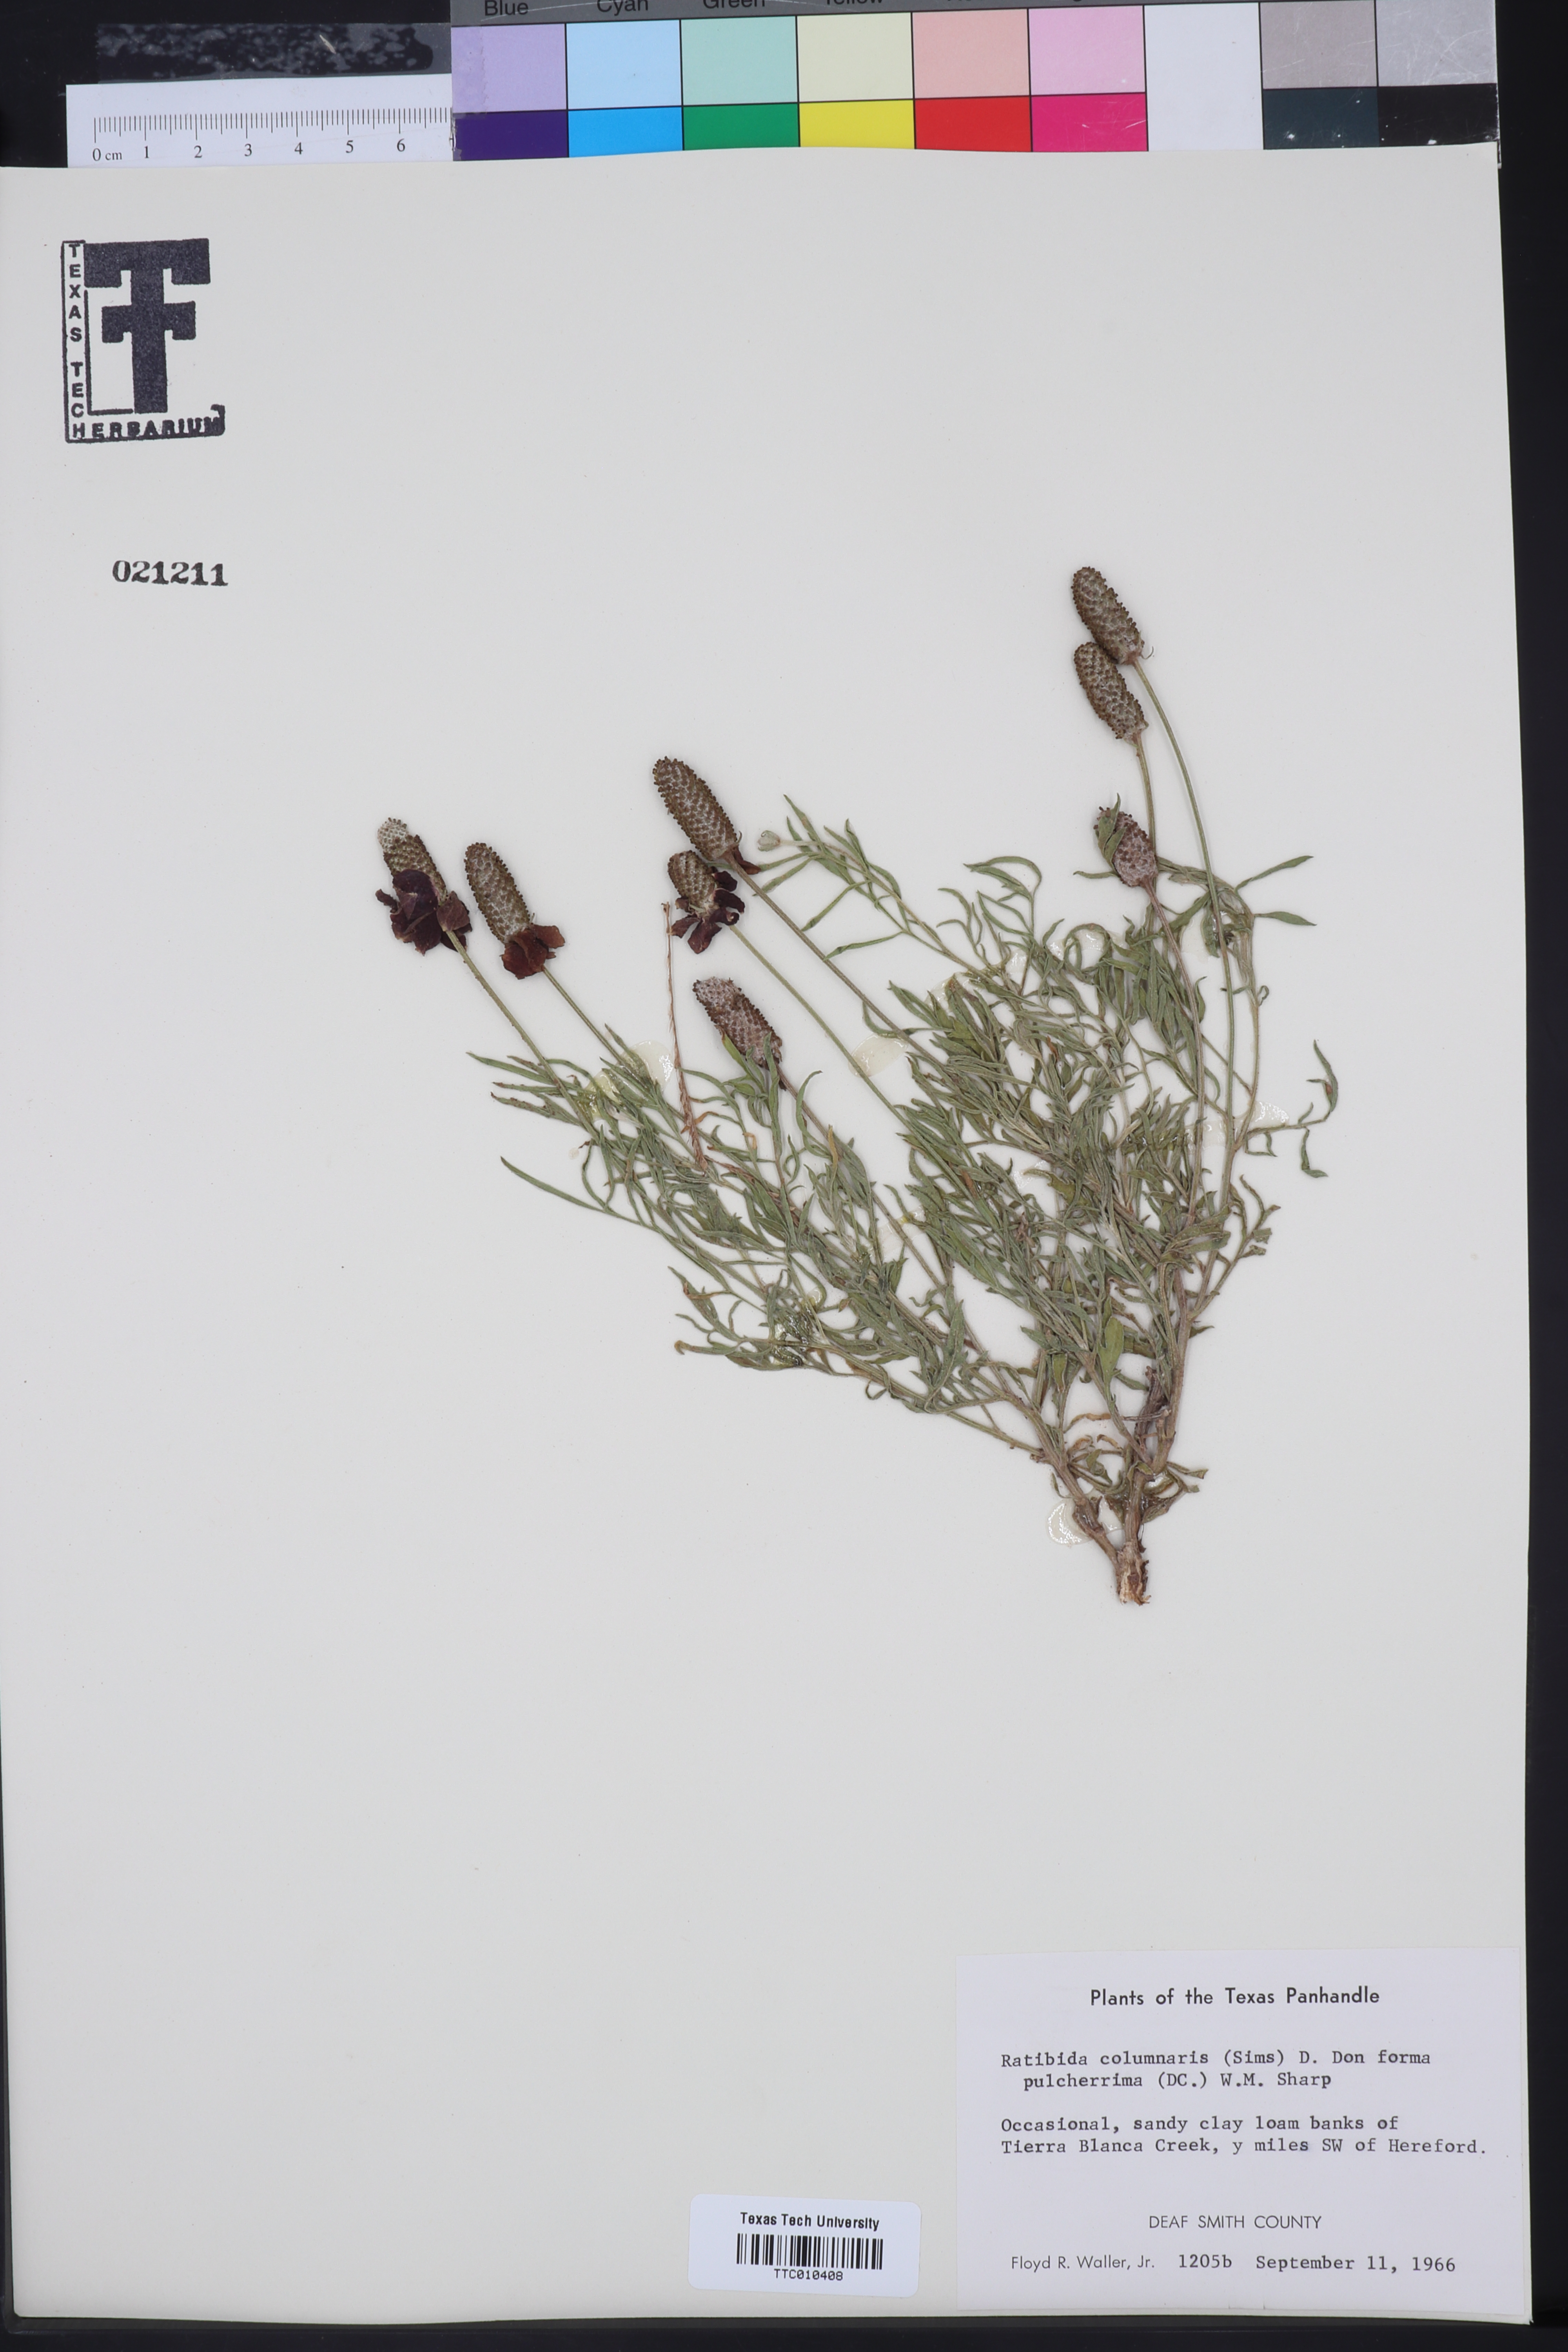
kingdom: Plantae
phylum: Tracheophyta
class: Magnoliopsida
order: Asterales
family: Asteraceae
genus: Ratibida
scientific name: Ratibida columnifera
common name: Prairie coneflower
